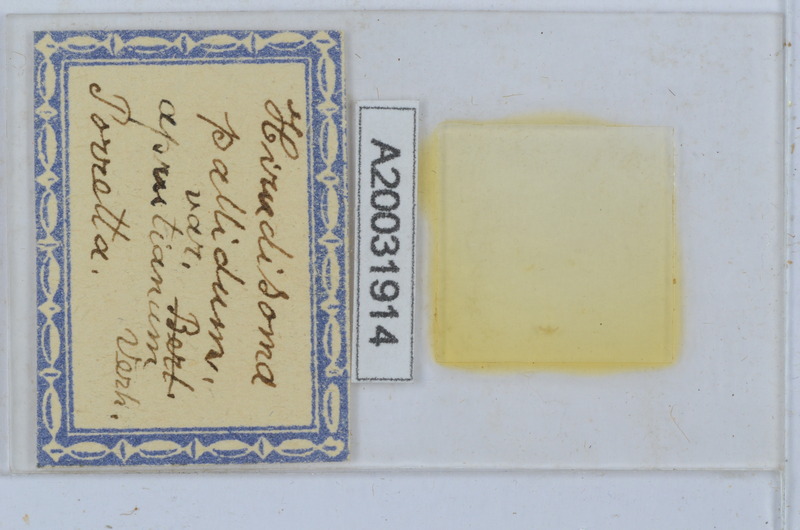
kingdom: Animalia
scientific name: Animalia
